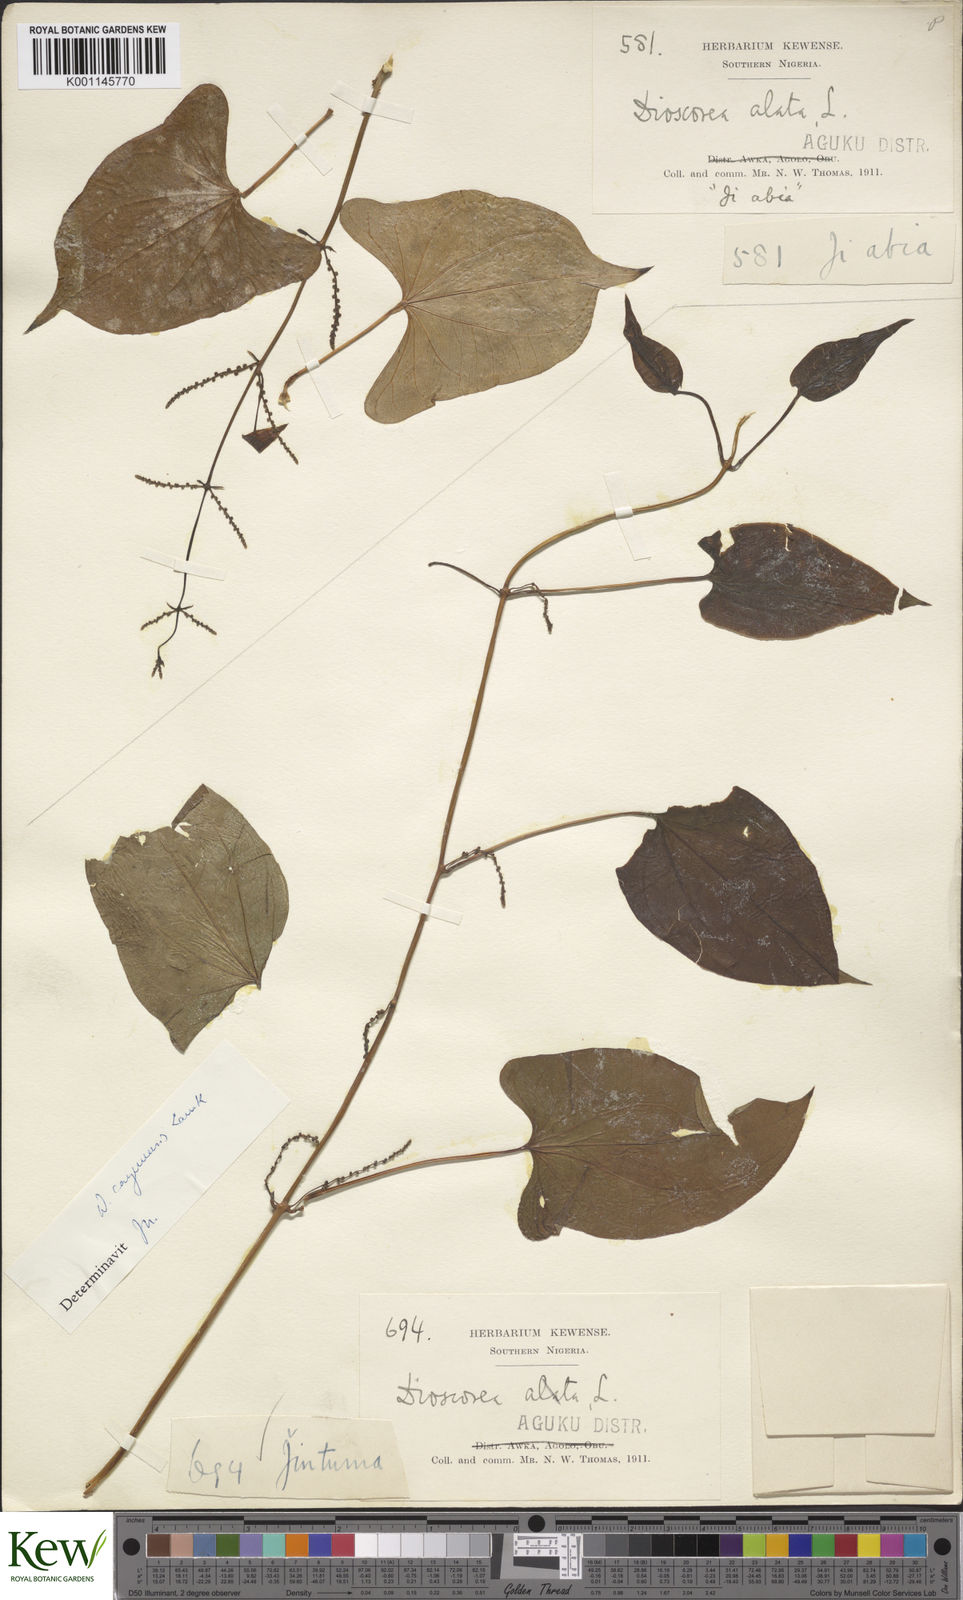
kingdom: Plantae
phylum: Tracheophyta
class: Liliopsida
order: Dioscoreales
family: Dioscoreaceae
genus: Dioscorea
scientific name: Dioscorea cayenensis
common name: Attoto yam
